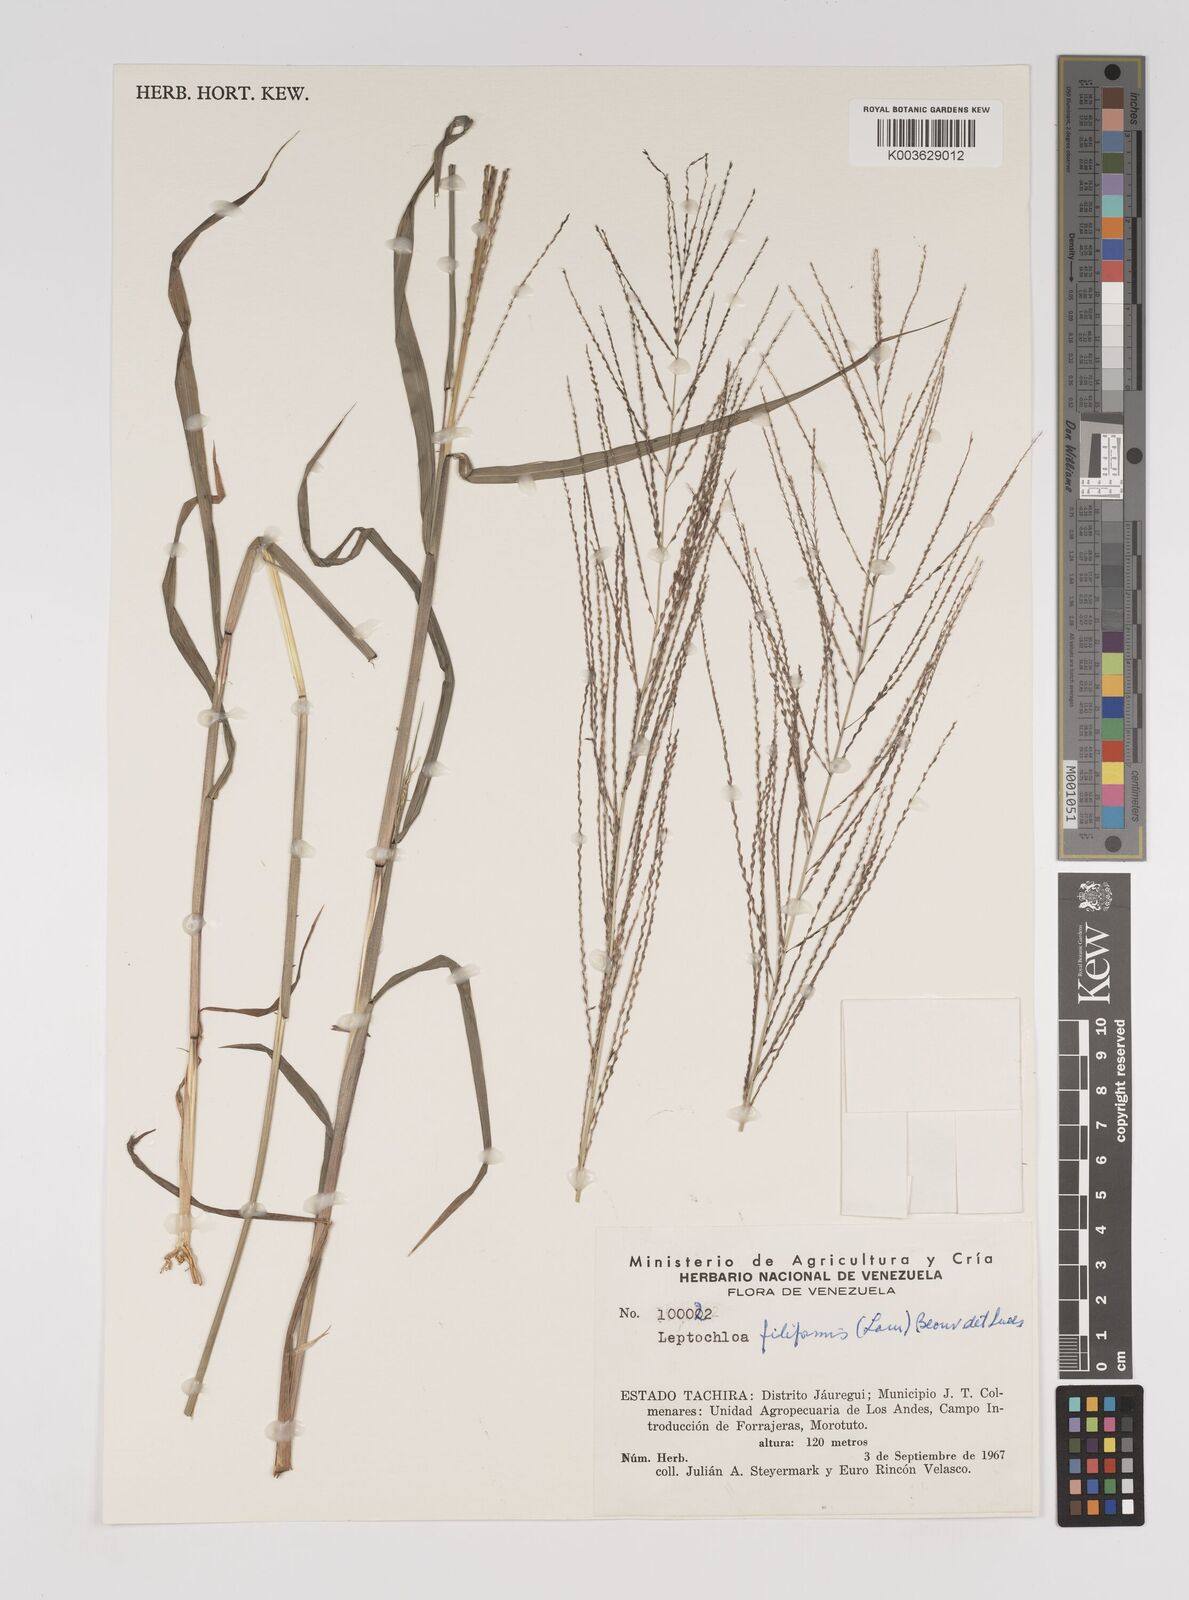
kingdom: Plantae
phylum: Tracheophyta
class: Liliopsida
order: Poales
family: Poaceae
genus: Leptochloa
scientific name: Leptochloa panicea
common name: Mucronate sprangletop
